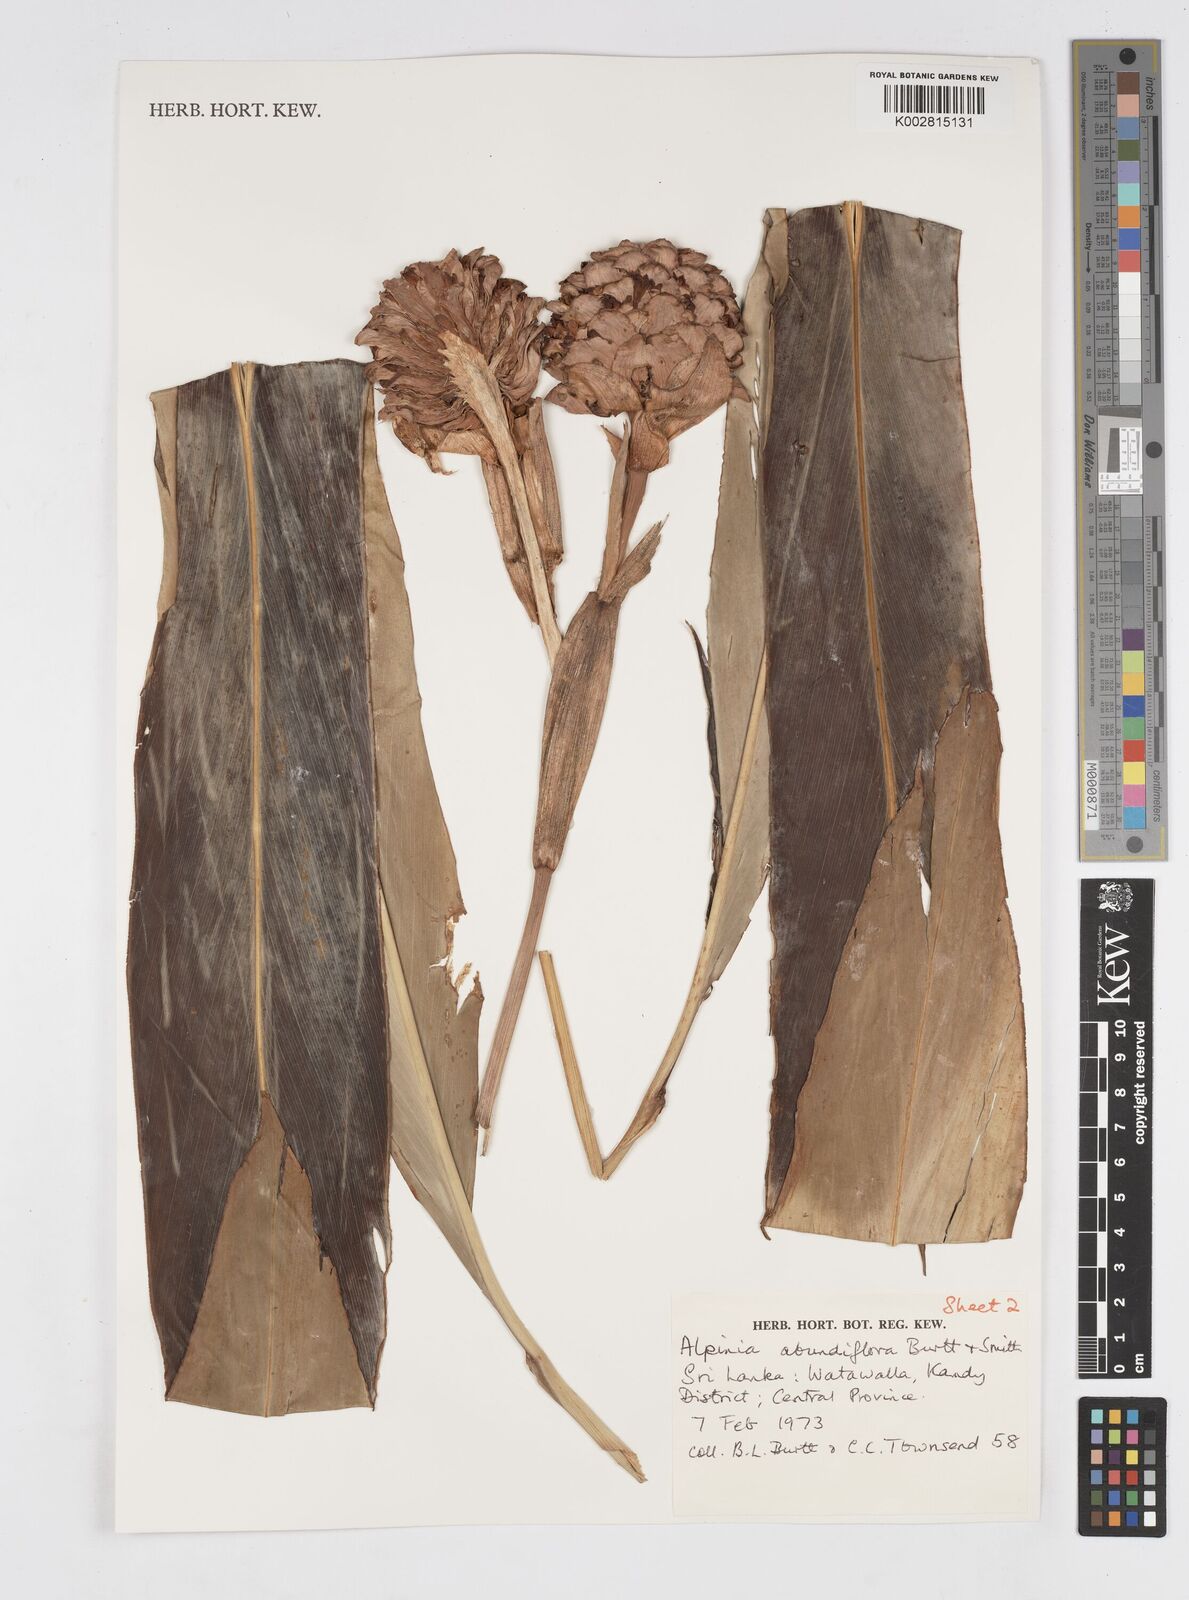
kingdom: Plantae
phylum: Tracheophyta
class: Liliopsida
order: Zingiberales
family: Zingiberaceae
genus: Alpinia
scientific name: Alpinia abundiflora
